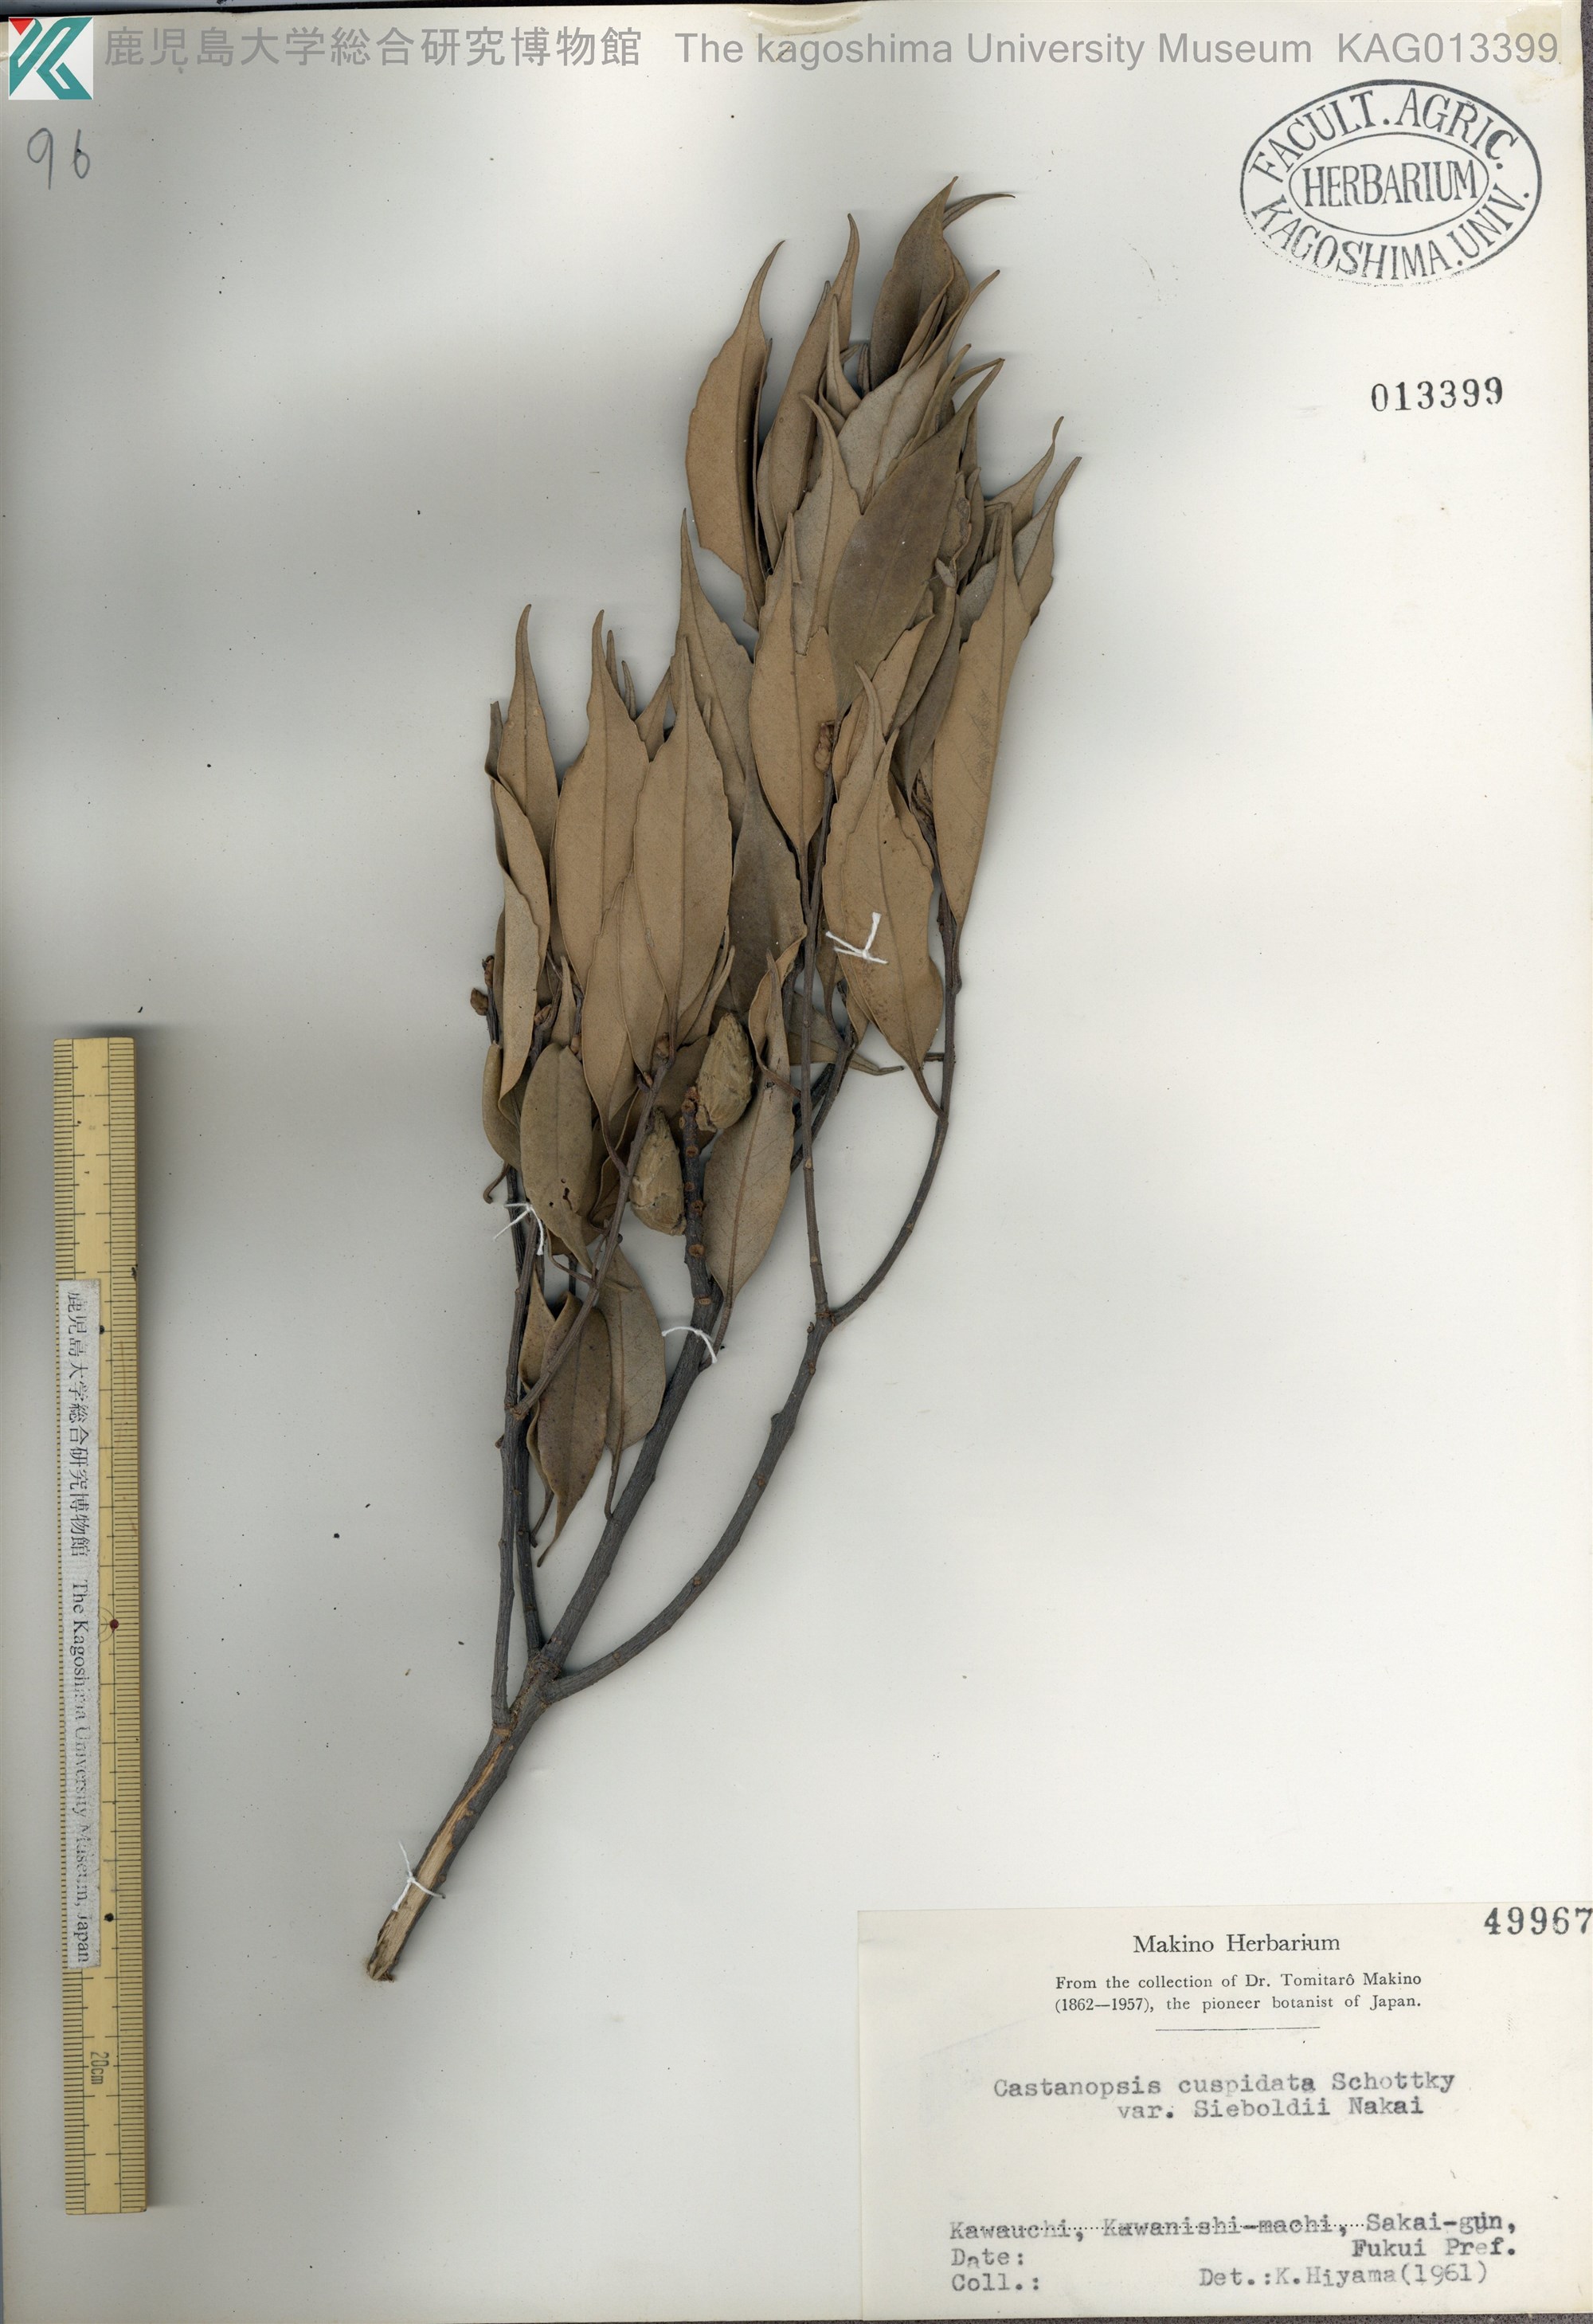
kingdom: Plantae
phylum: Tracheophyta
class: Magnoliopsida
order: Fagales
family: Fagaceae
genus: Castanopsis
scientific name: Castanopsis sieboldii
